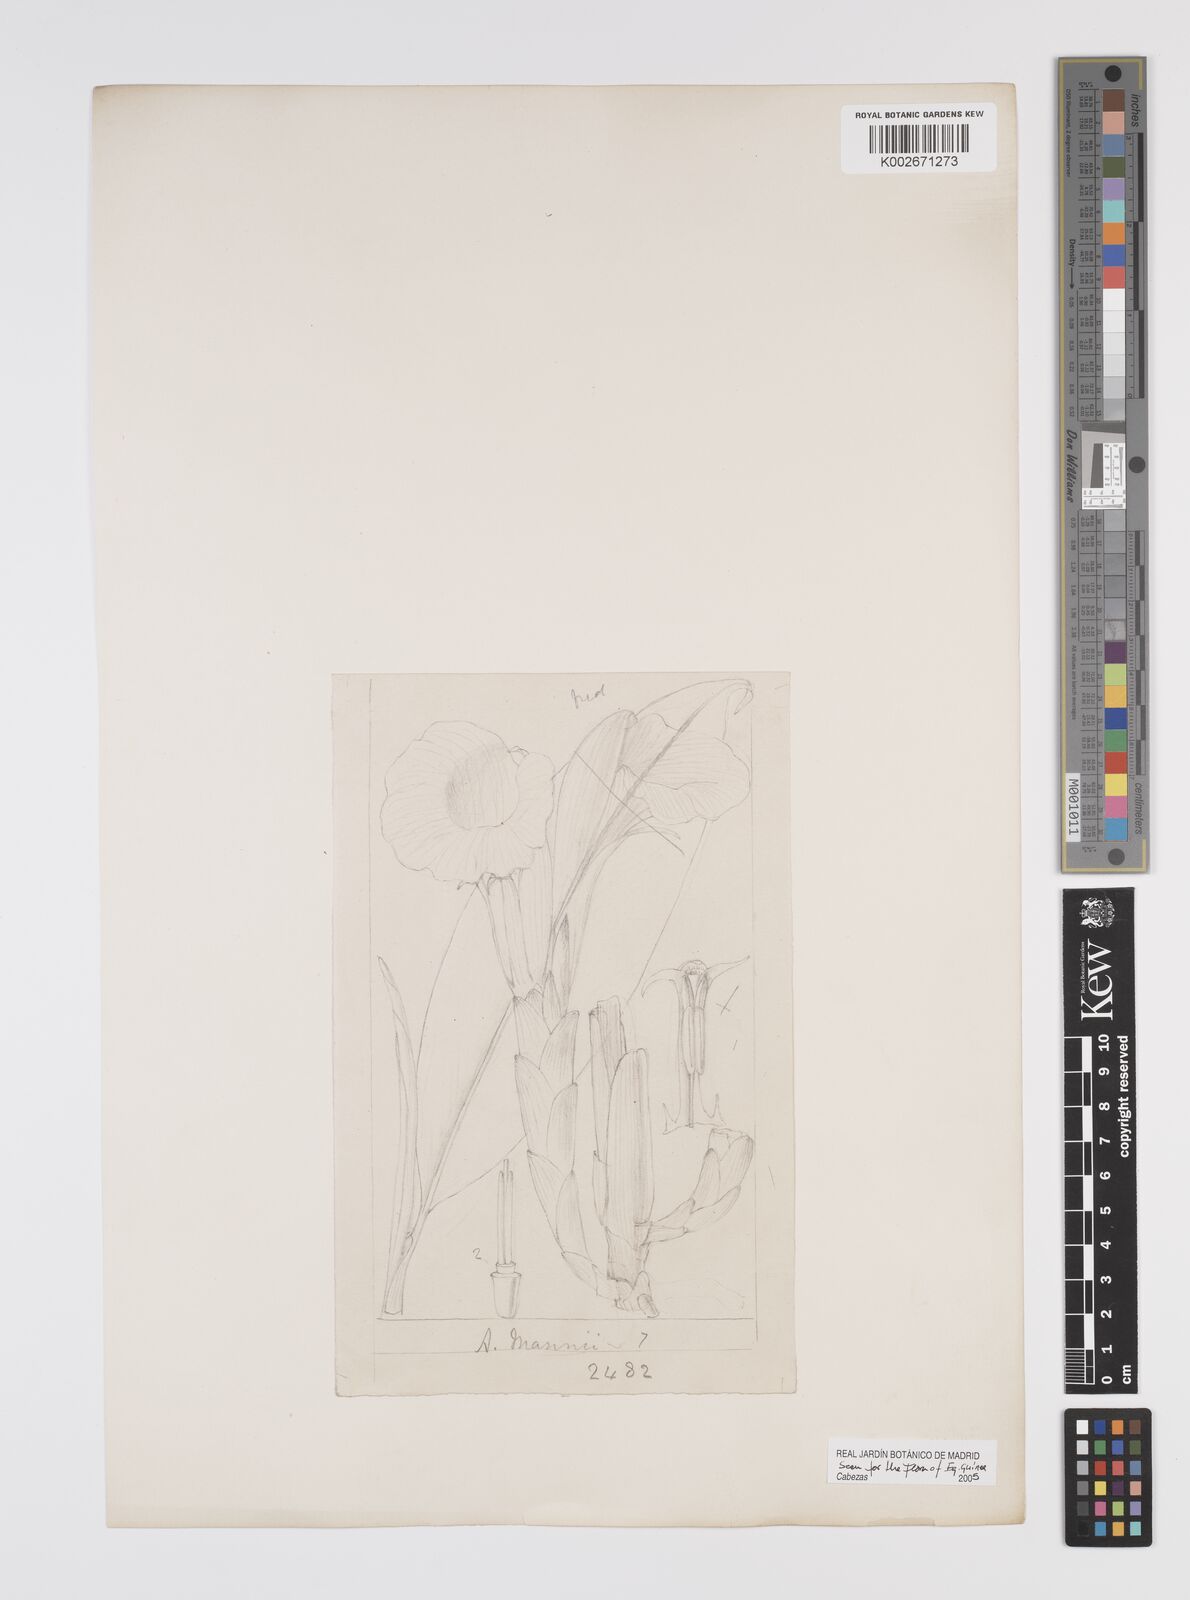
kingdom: Plantae
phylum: Tracheophyta
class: Liliopsida
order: Zingiberales
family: Zingiberaceae
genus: Aframomum
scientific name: Aframomum mannii
